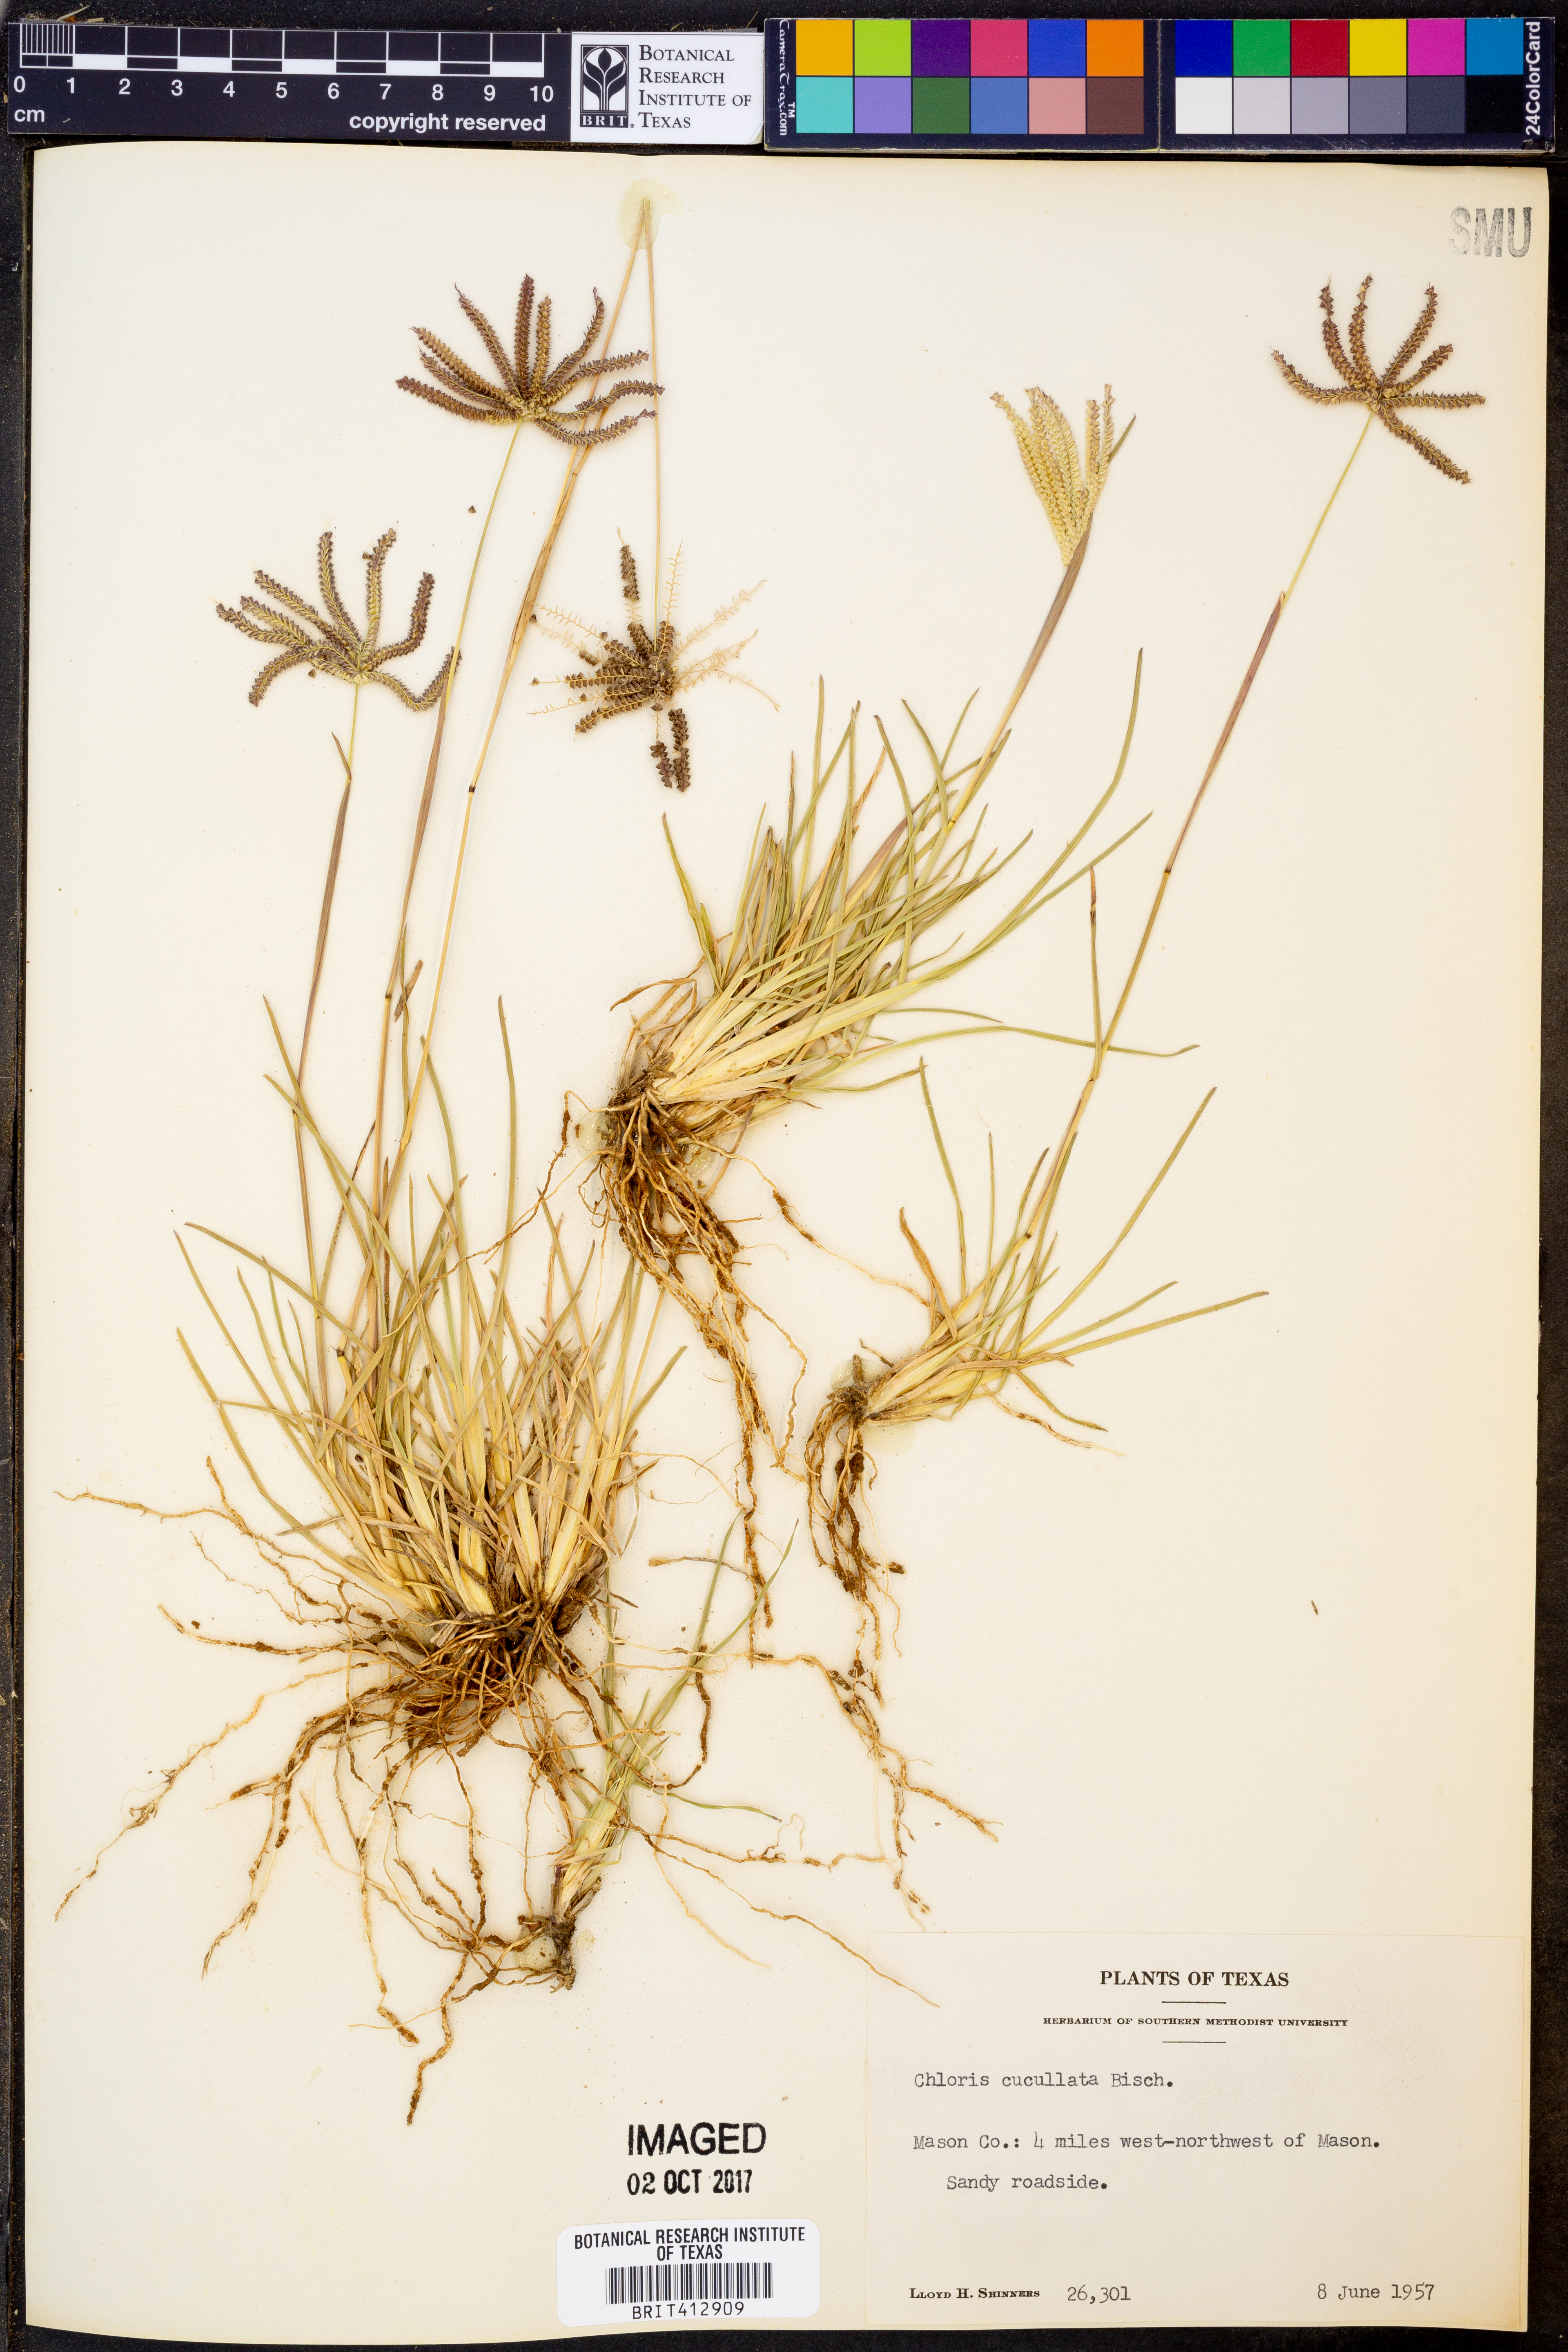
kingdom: Plantae
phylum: Tracheophyta
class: Liliopsida
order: Poales
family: Poaceae
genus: Chloris
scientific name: Chloris cucullata
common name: Hooded windmill grass
